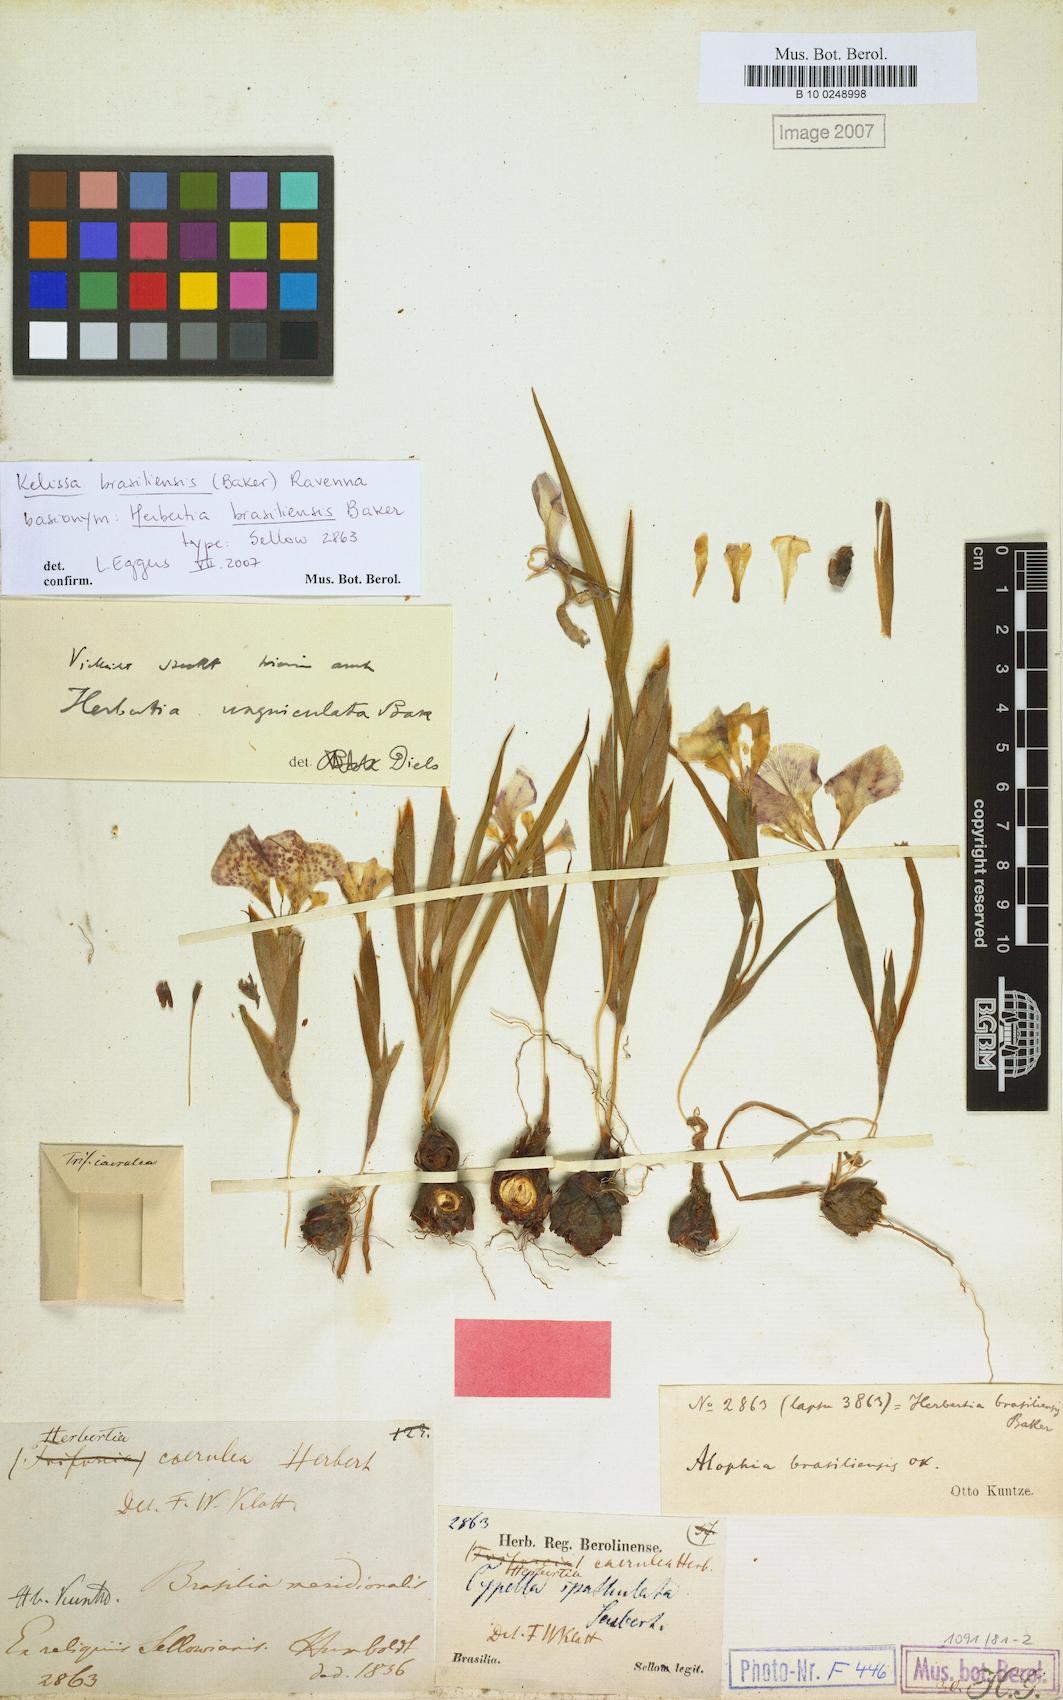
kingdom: Plantae
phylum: Tracheophyta
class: Liliopsida
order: Asparagales
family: Iridaceae
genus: Cypella
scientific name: Cypella brasiliensis
